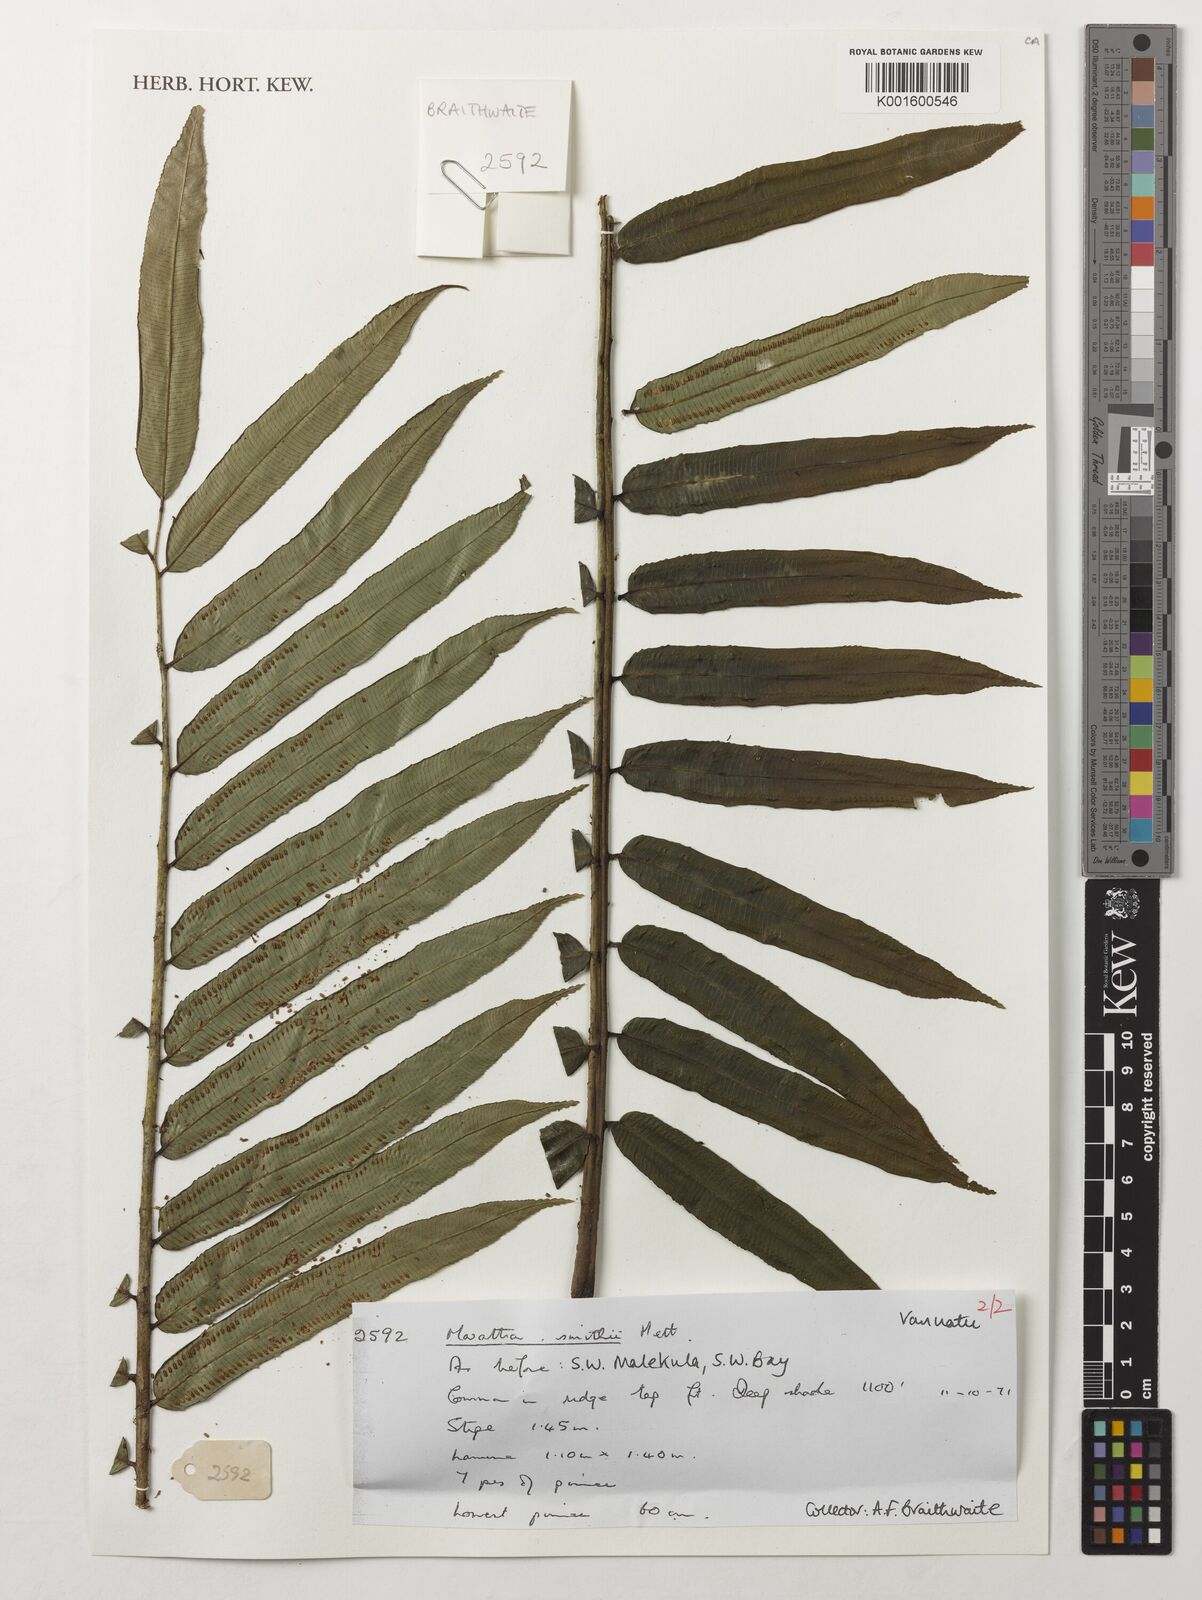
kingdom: Plantae
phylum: Tracheophyta
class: Polypodiopsida
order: Marattiales
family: Marattiaceae
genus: Ptisana
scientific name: Ptisana smithii
